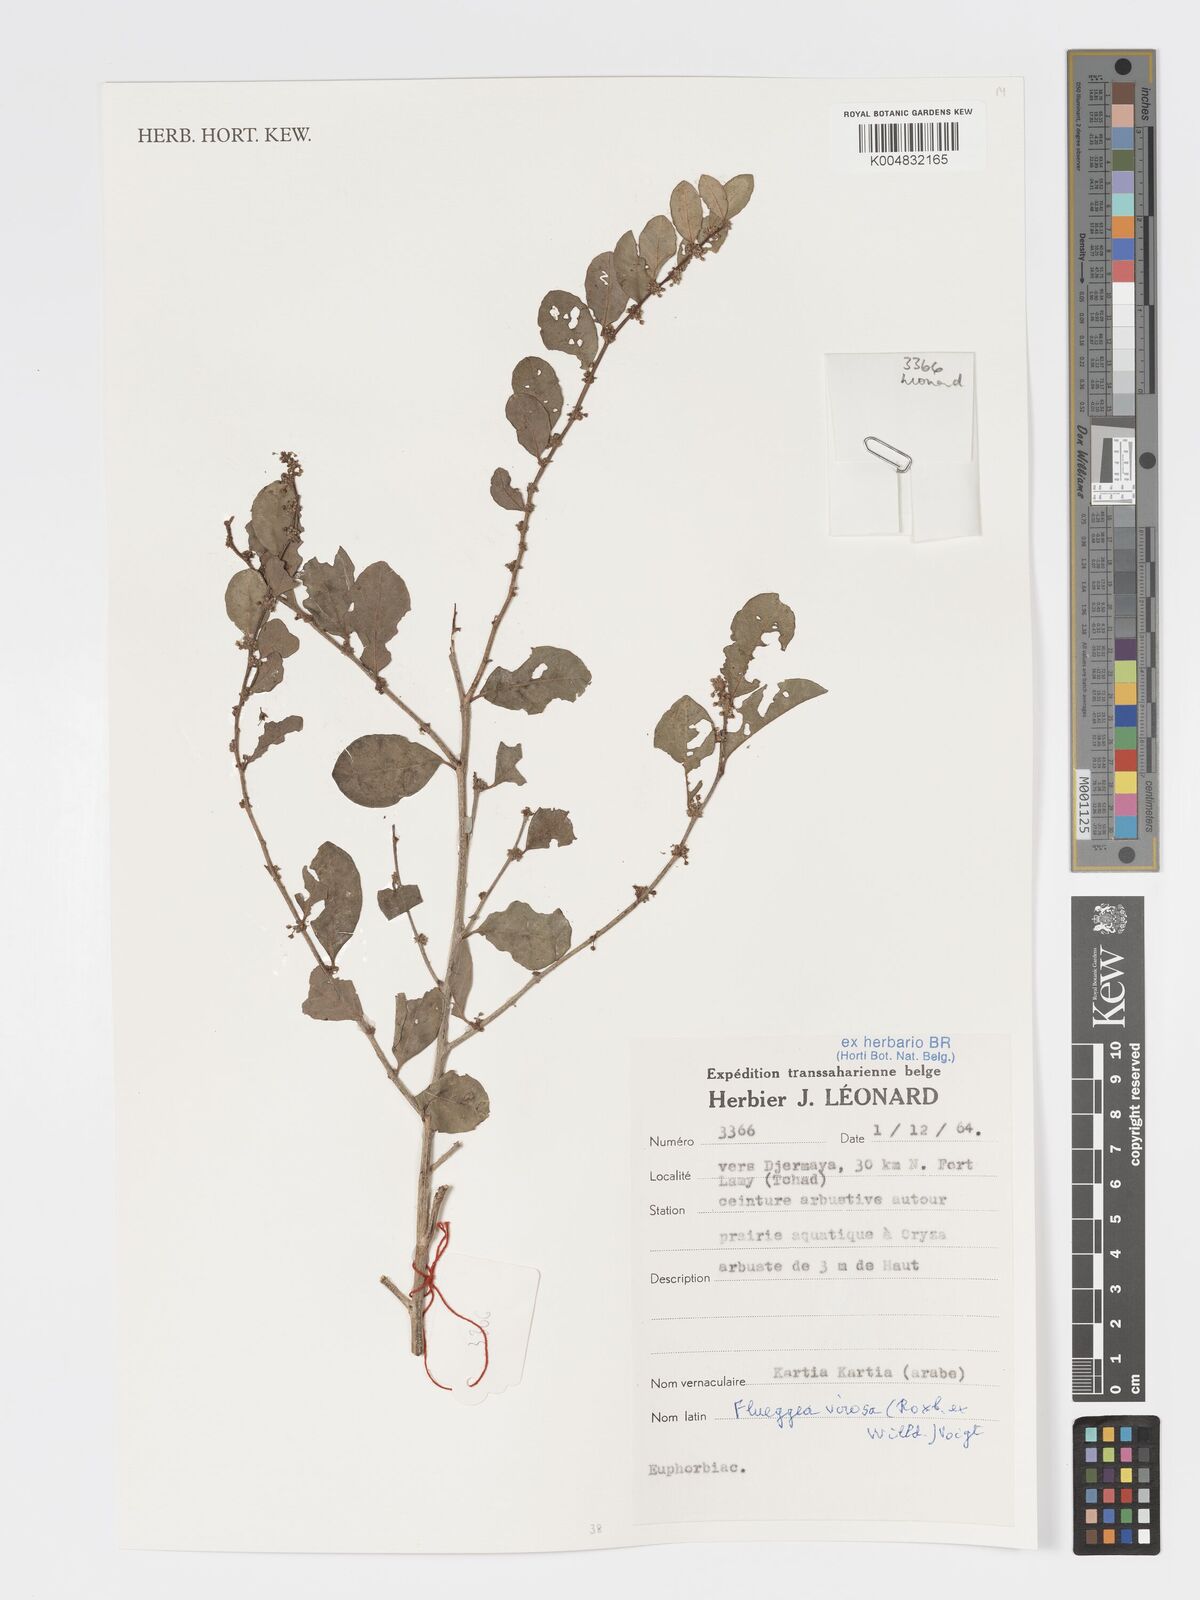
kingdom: Plantae
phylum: Tracheophyta
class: Magnoliopsida
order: Malpighiales
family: Phyllanthaceae
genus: Flueggea
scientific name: Flueggea virosa
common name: Common bushweed
